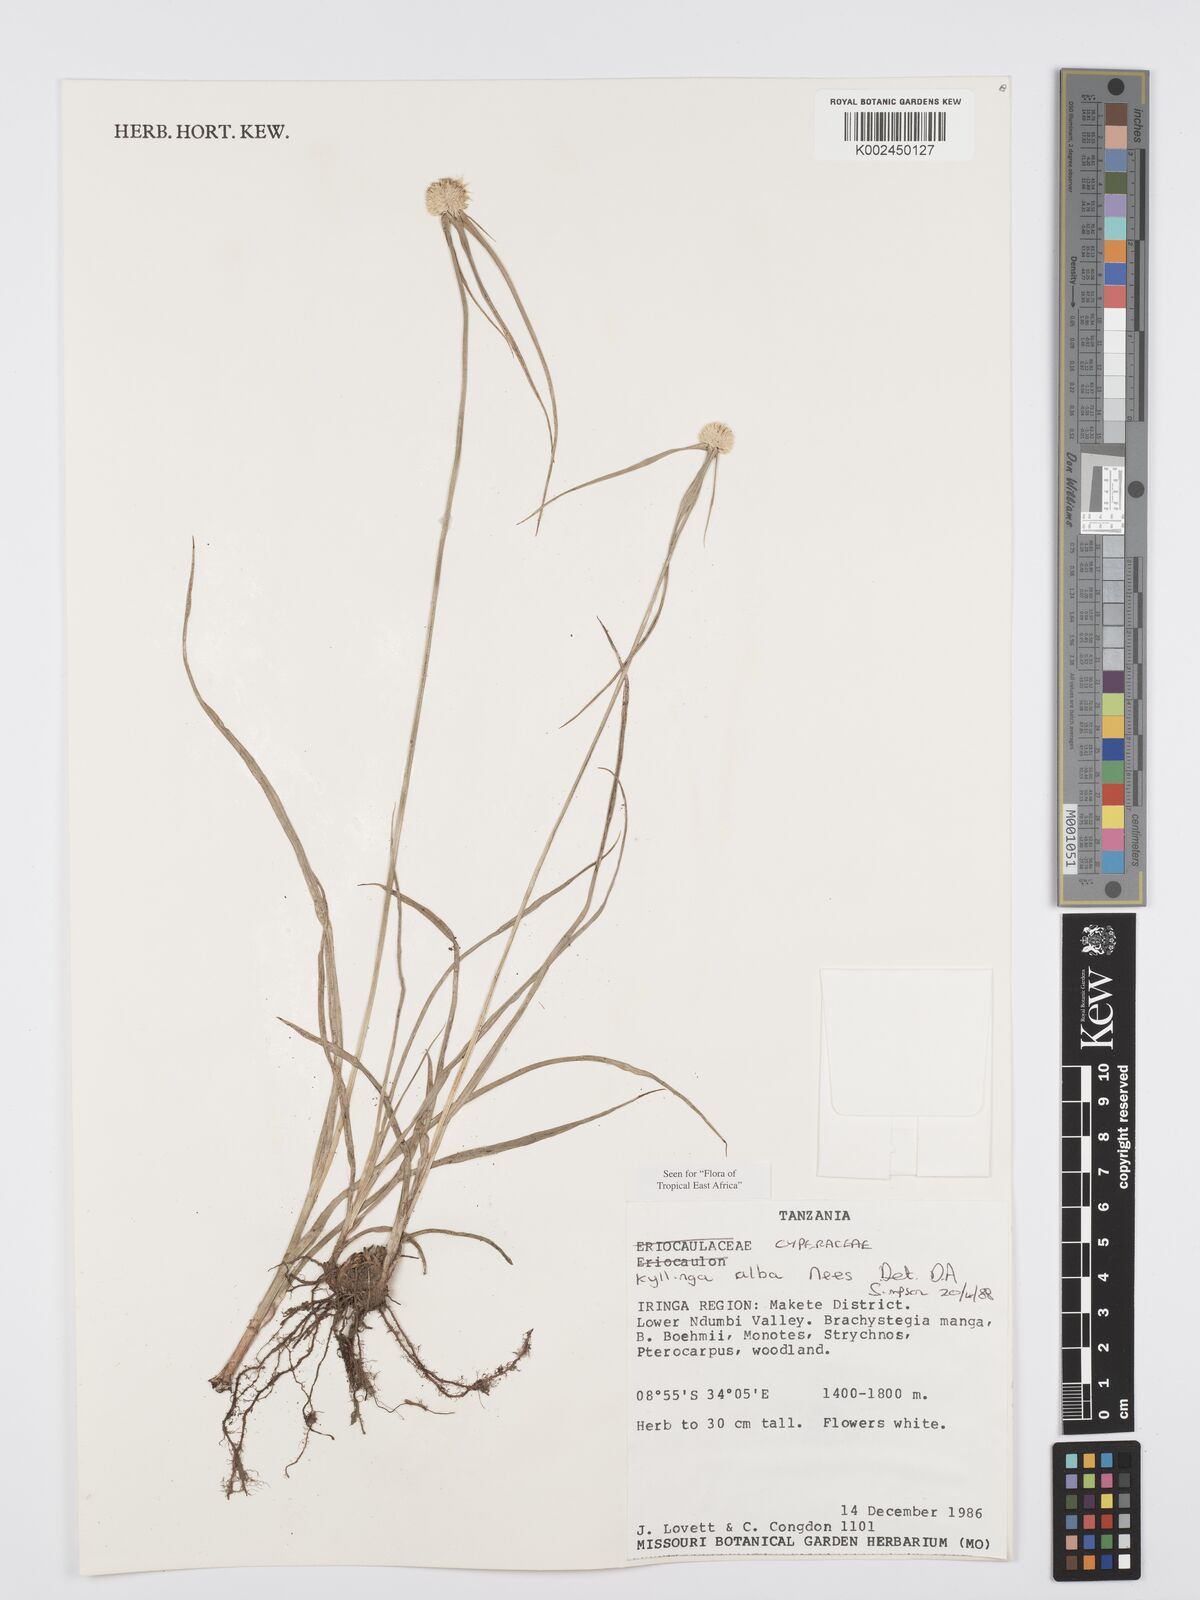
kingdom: Plantae
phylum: Tracheophyta
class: Liliopsida
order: Poales
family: Cyperaceae
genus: Cyperus
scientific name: Cyperus
